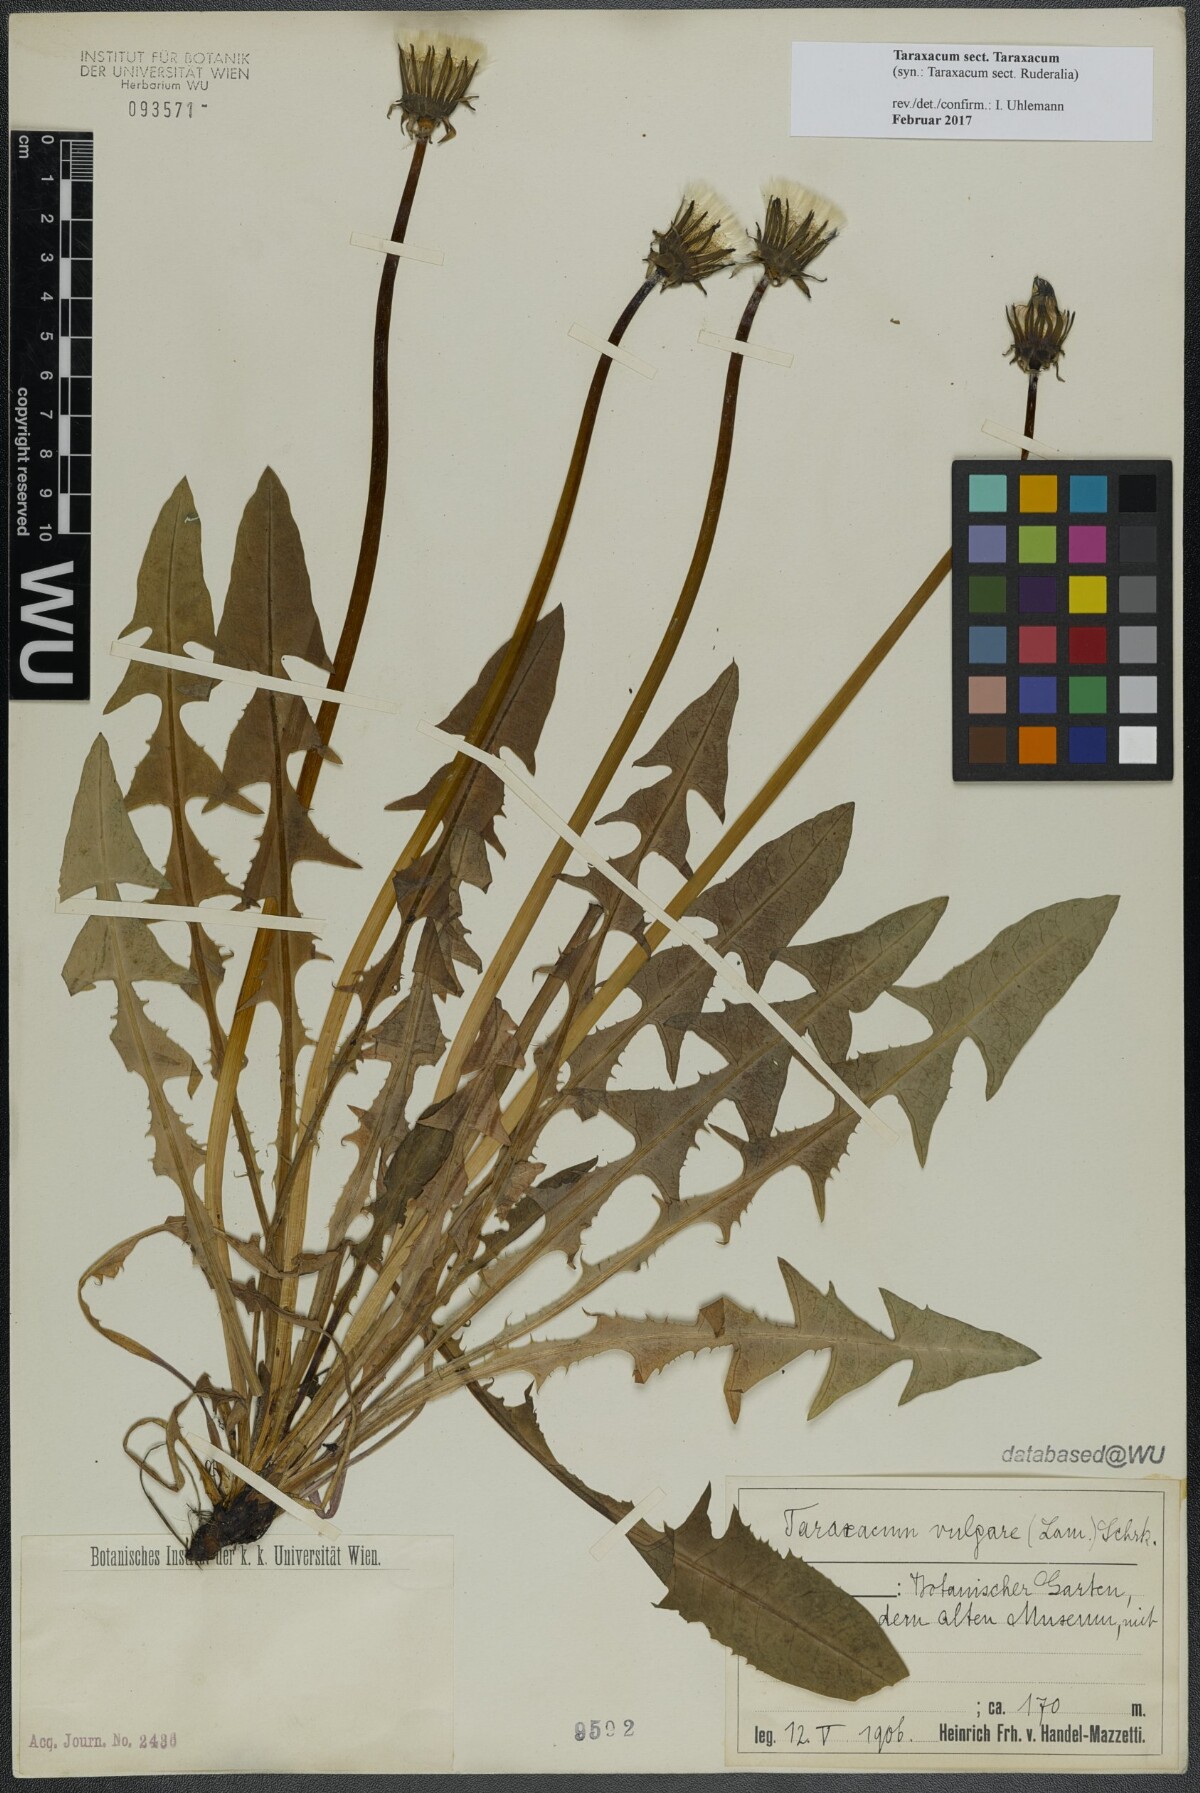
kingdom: Plantae
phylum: Tracheophyta
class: Magnoliopsida
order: Asterales
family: Asteraceae
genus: Taraxacum
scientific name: Taraxacum
